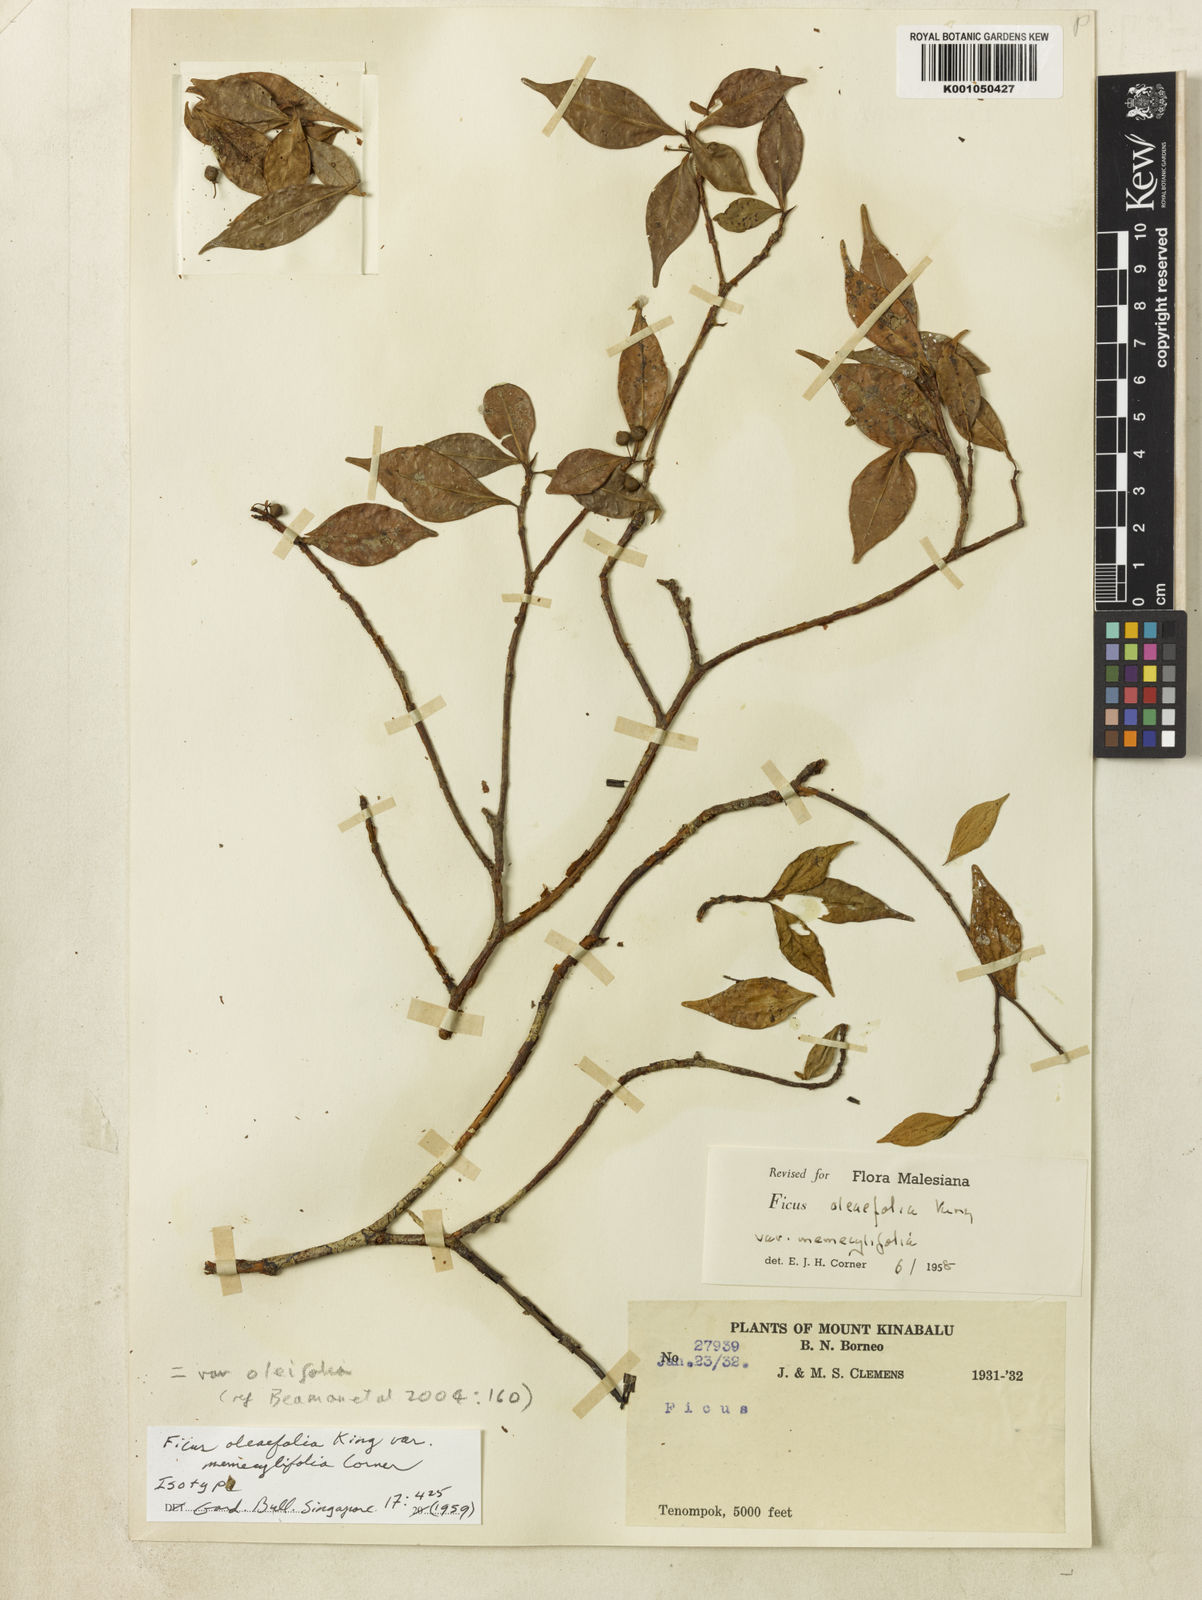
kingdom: Plantae
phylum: Tracheophyta
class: Magnoliopsida
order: Rosales
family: Moraceae
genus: Ficus
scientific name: Ficus oleifolia
